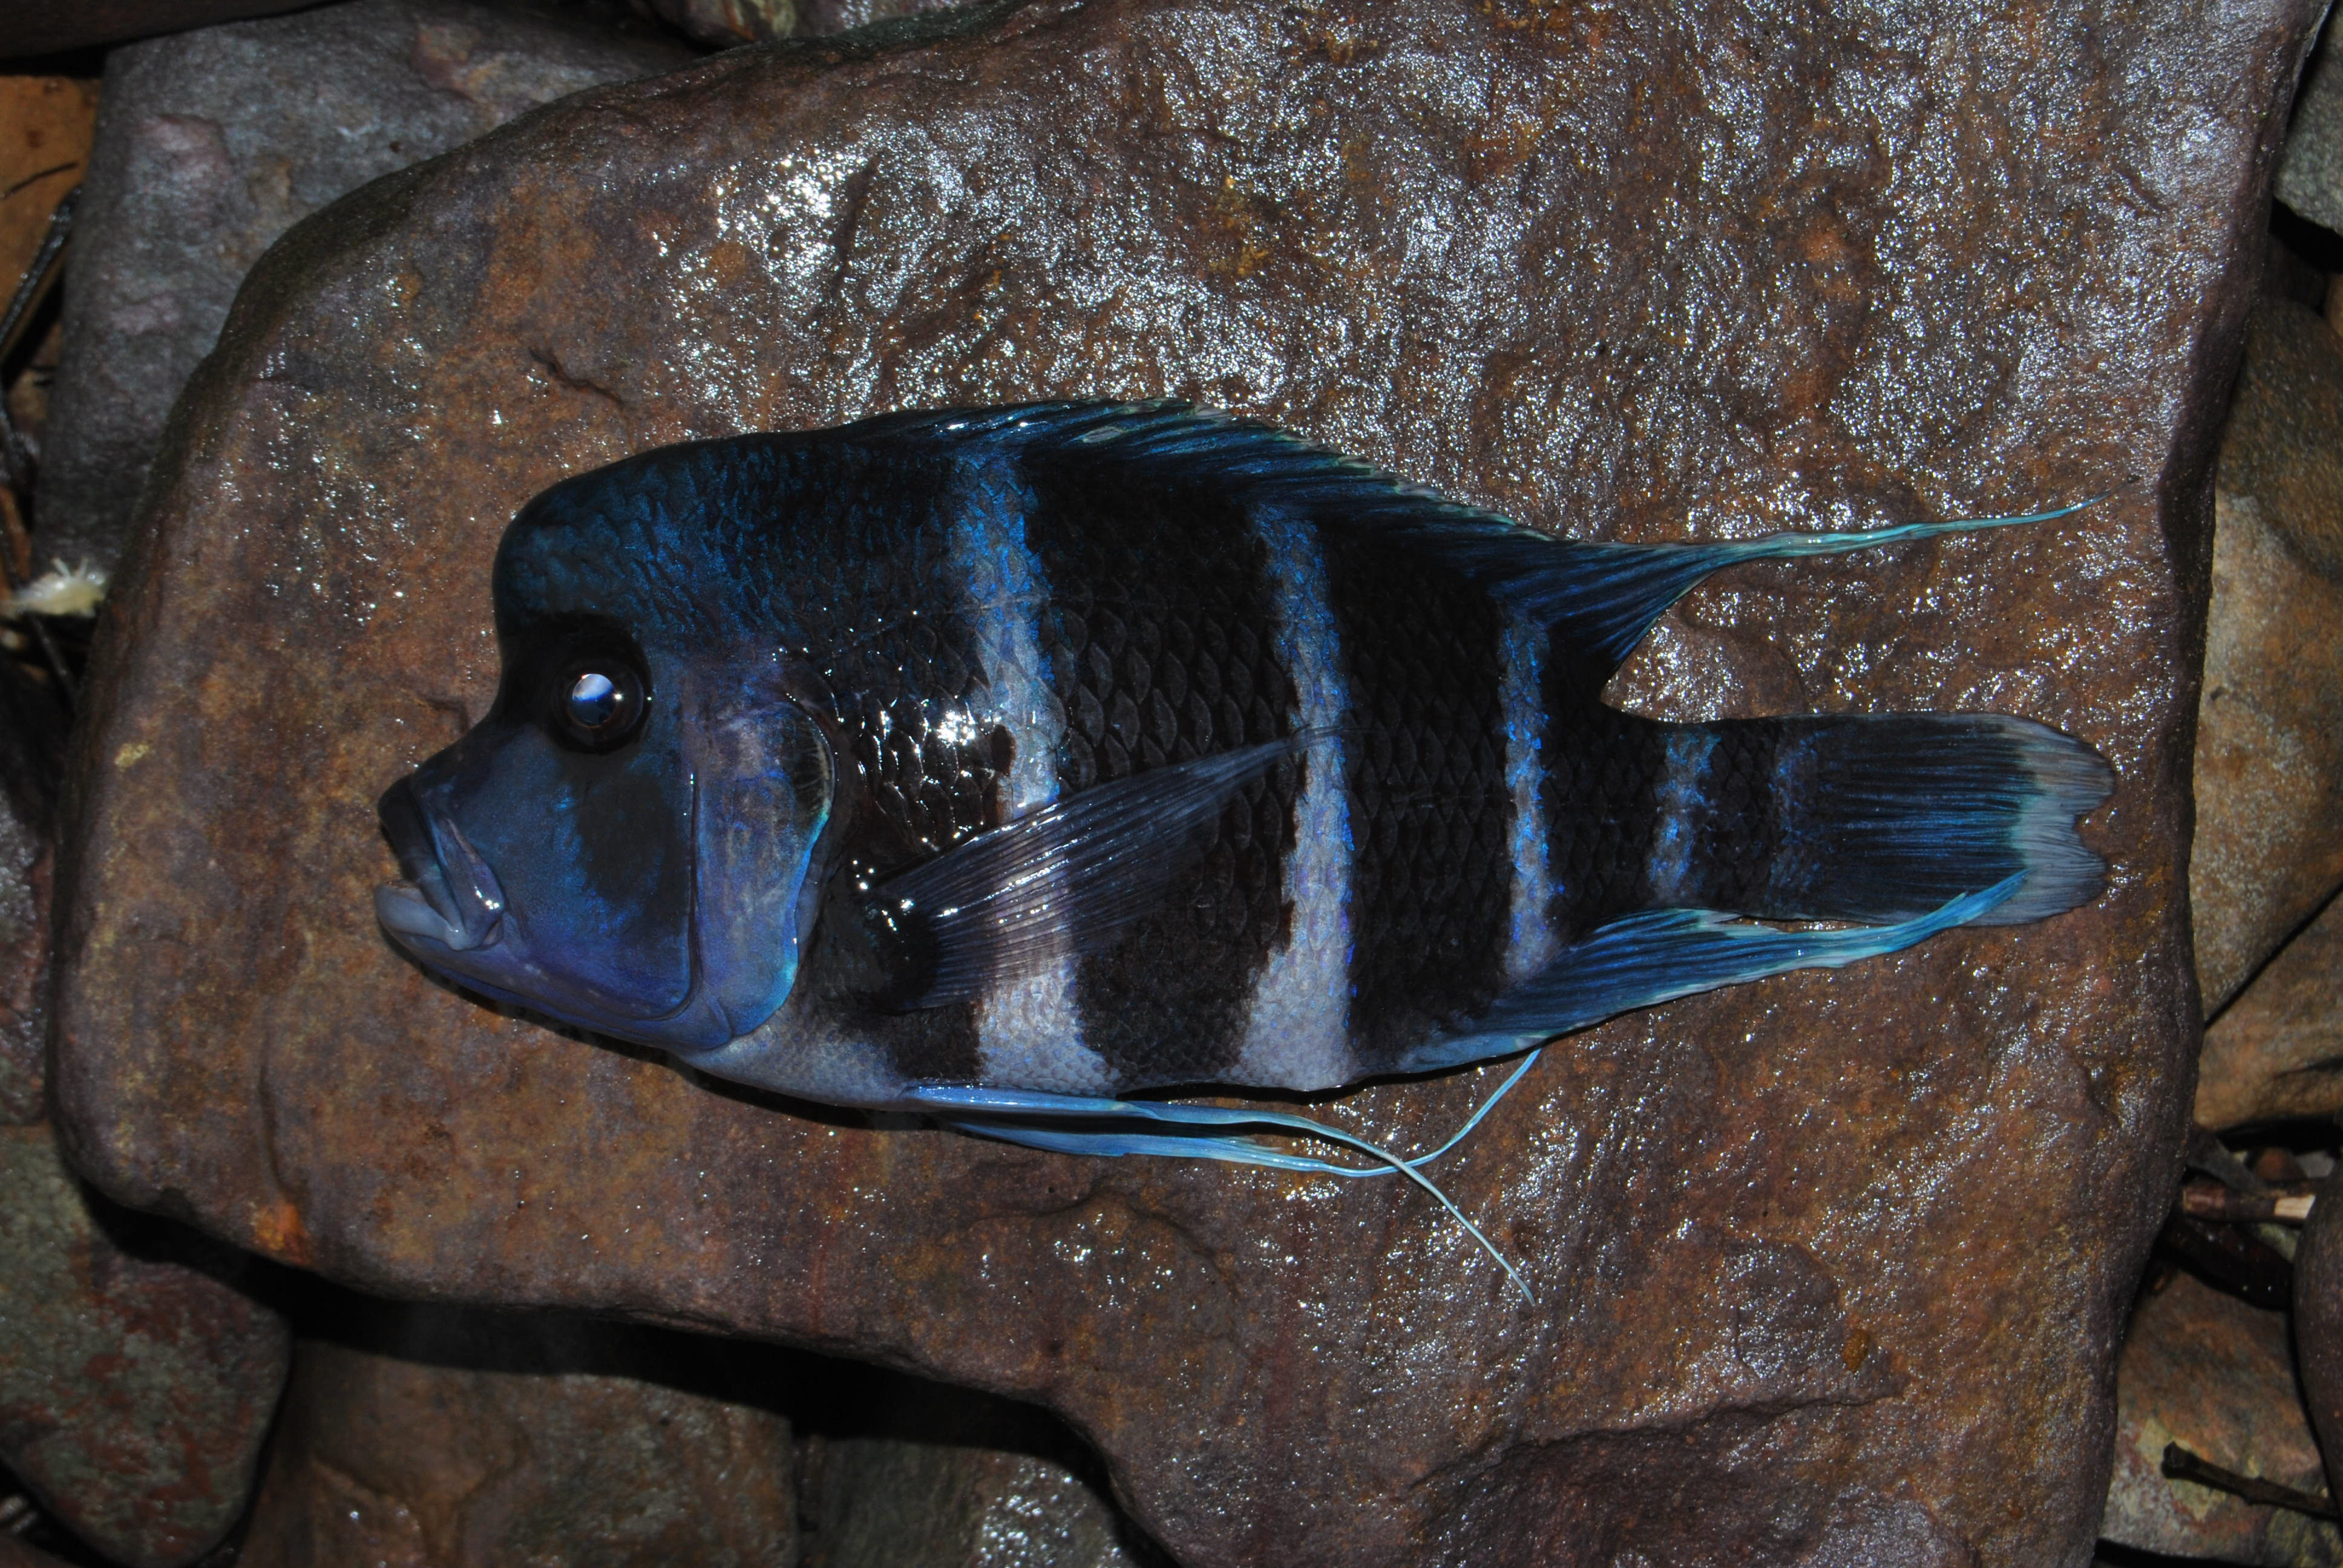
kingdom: Animalia
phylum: Chordata
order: Perciformes
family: Cichlidae
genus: Cyphotilapia
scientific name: Cyphotilapia frontosa
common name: Humphead cichlid
